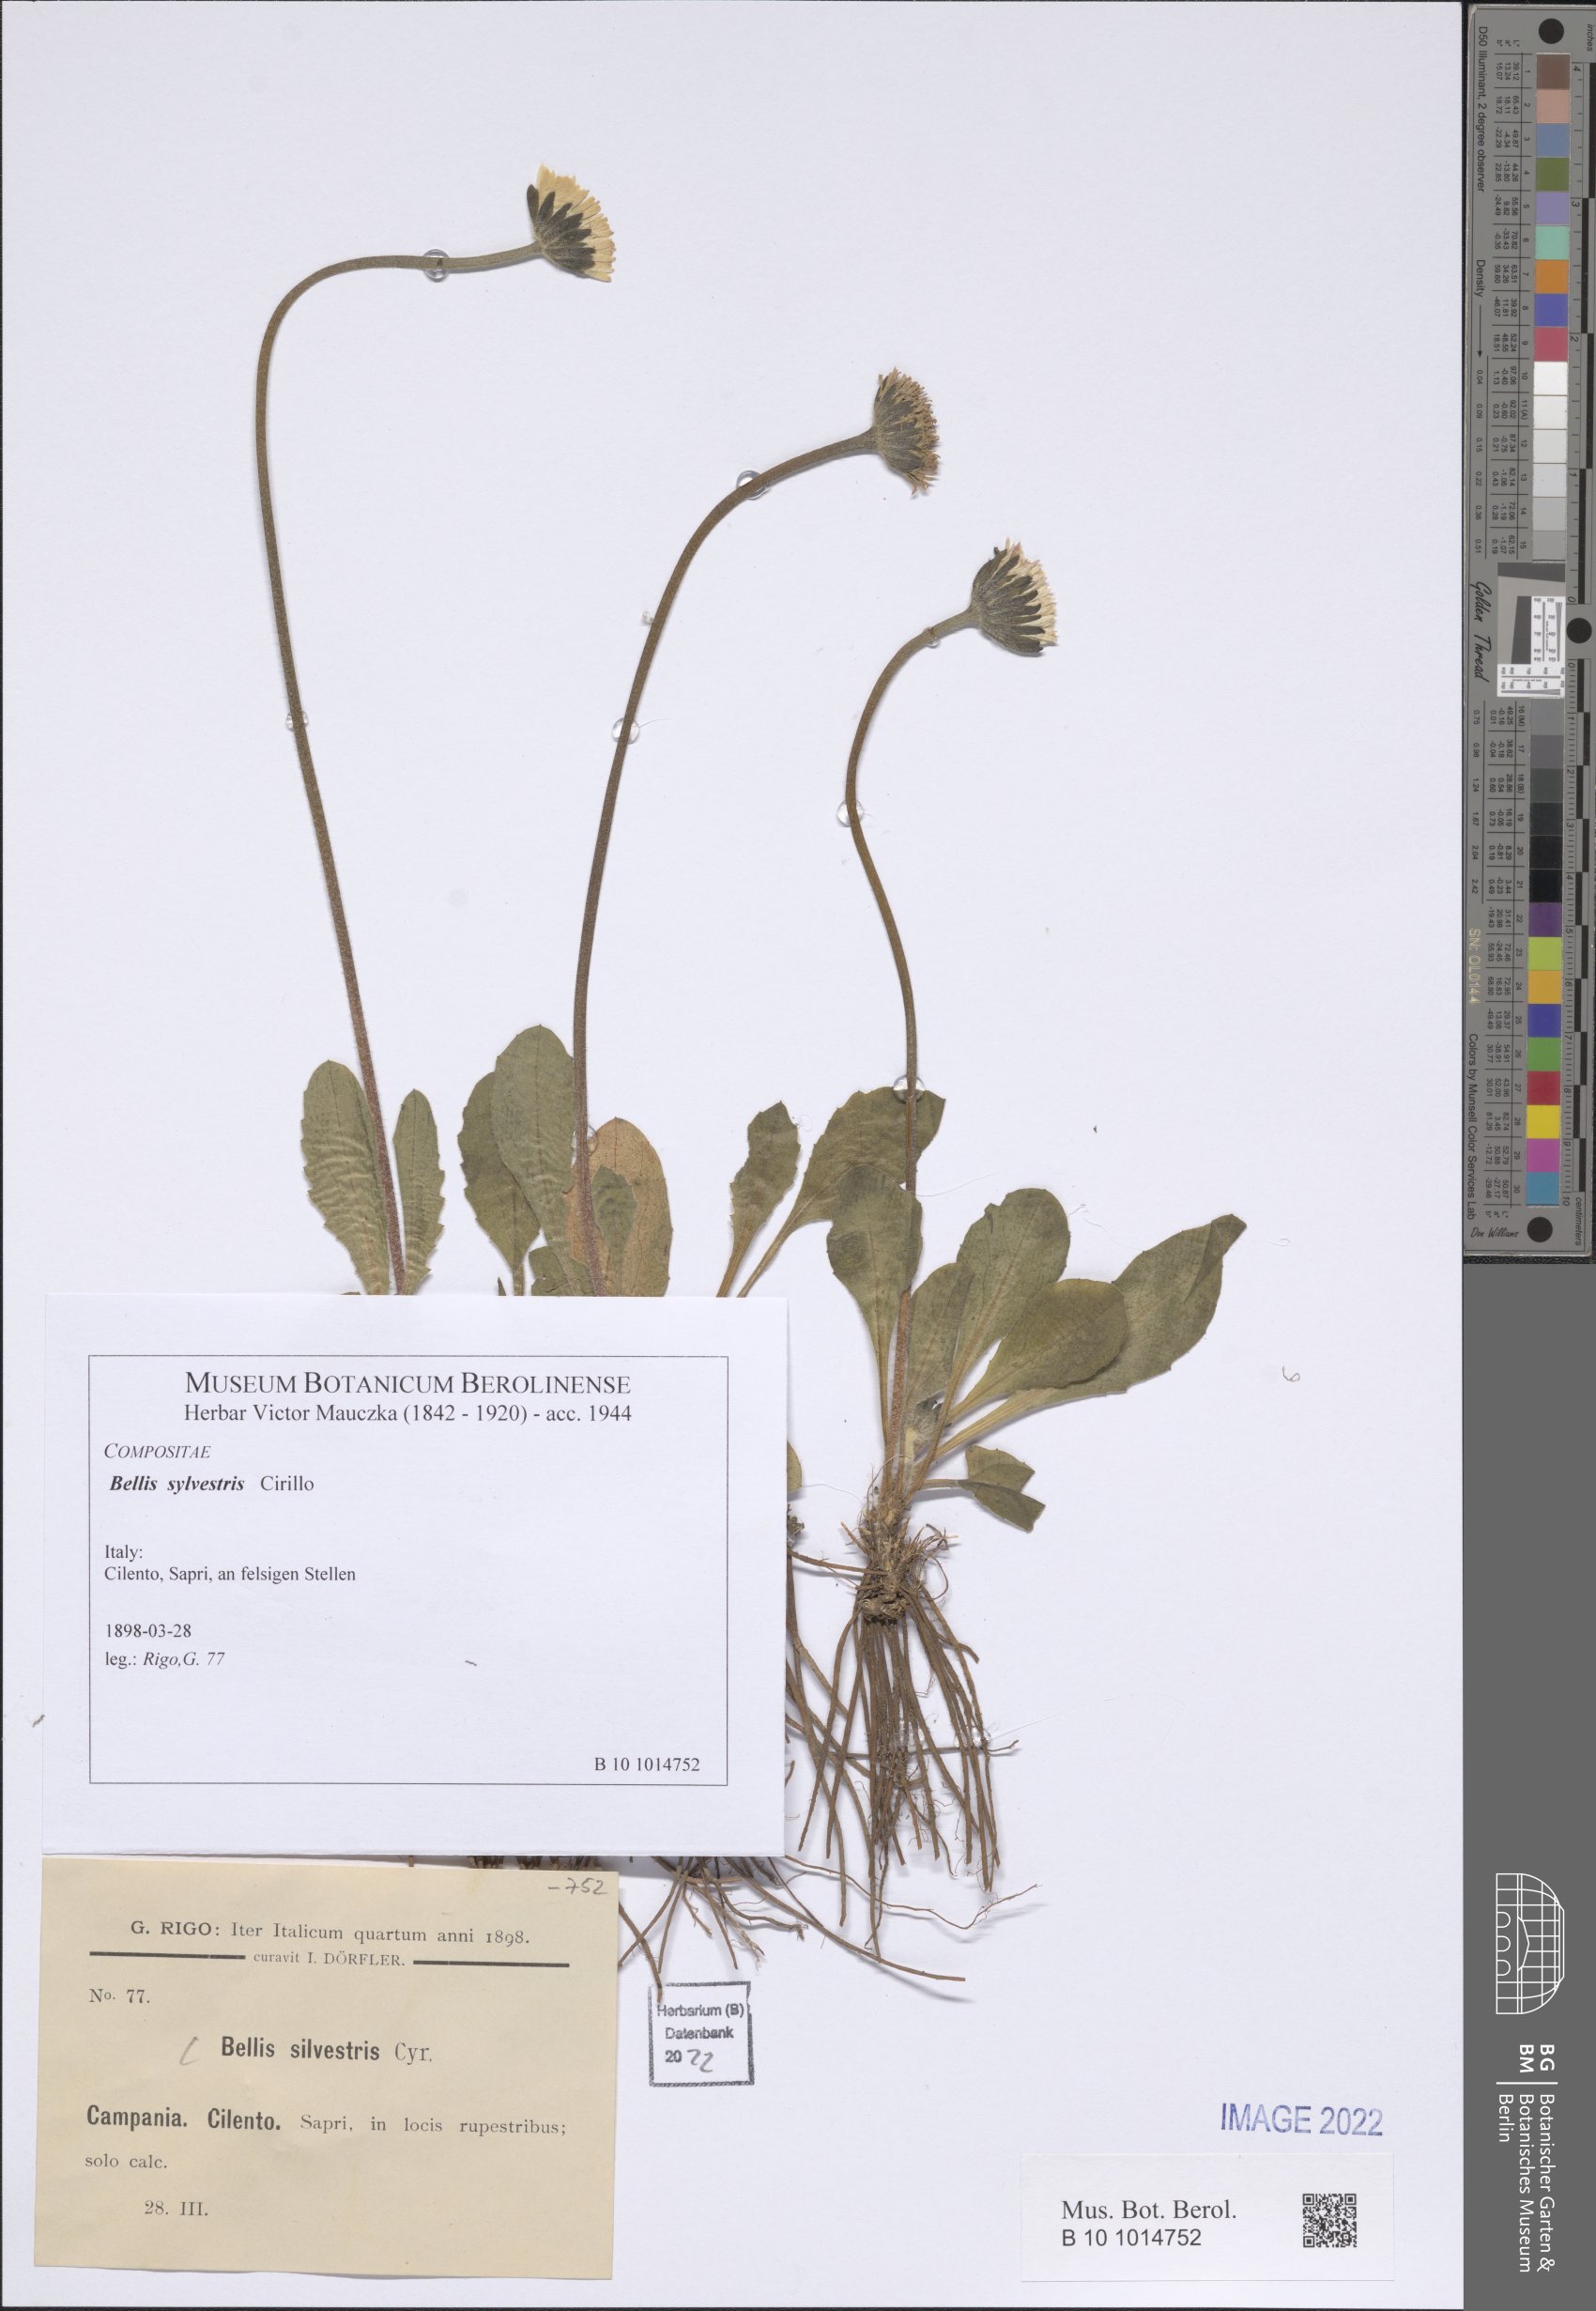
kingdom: Plantae
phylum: Tracheophyta
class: Magnoliopsida
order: Asterales
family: Asteraceae
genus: Bellis
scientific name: Bellis sylvestris
